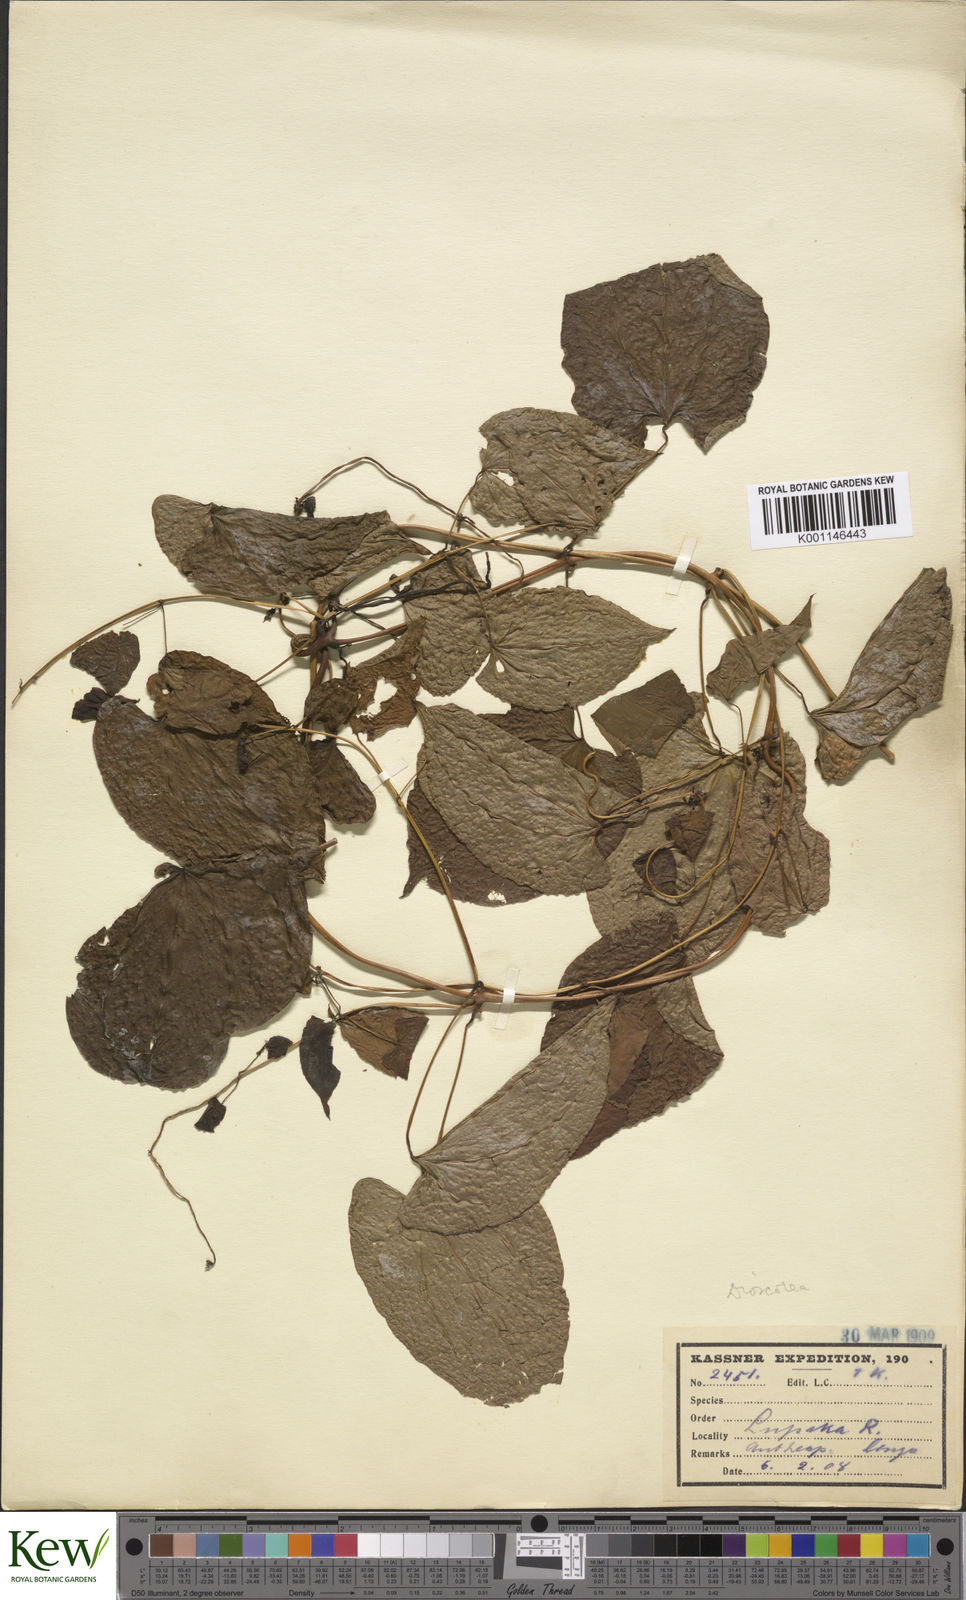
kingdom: Plantae
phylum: Tracheophyta
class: Liliopsida
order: Dioscoreales
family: Dioscoreaceae
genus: Dioscorea
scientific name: Dioscorea praehensilis
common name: Bush yam
